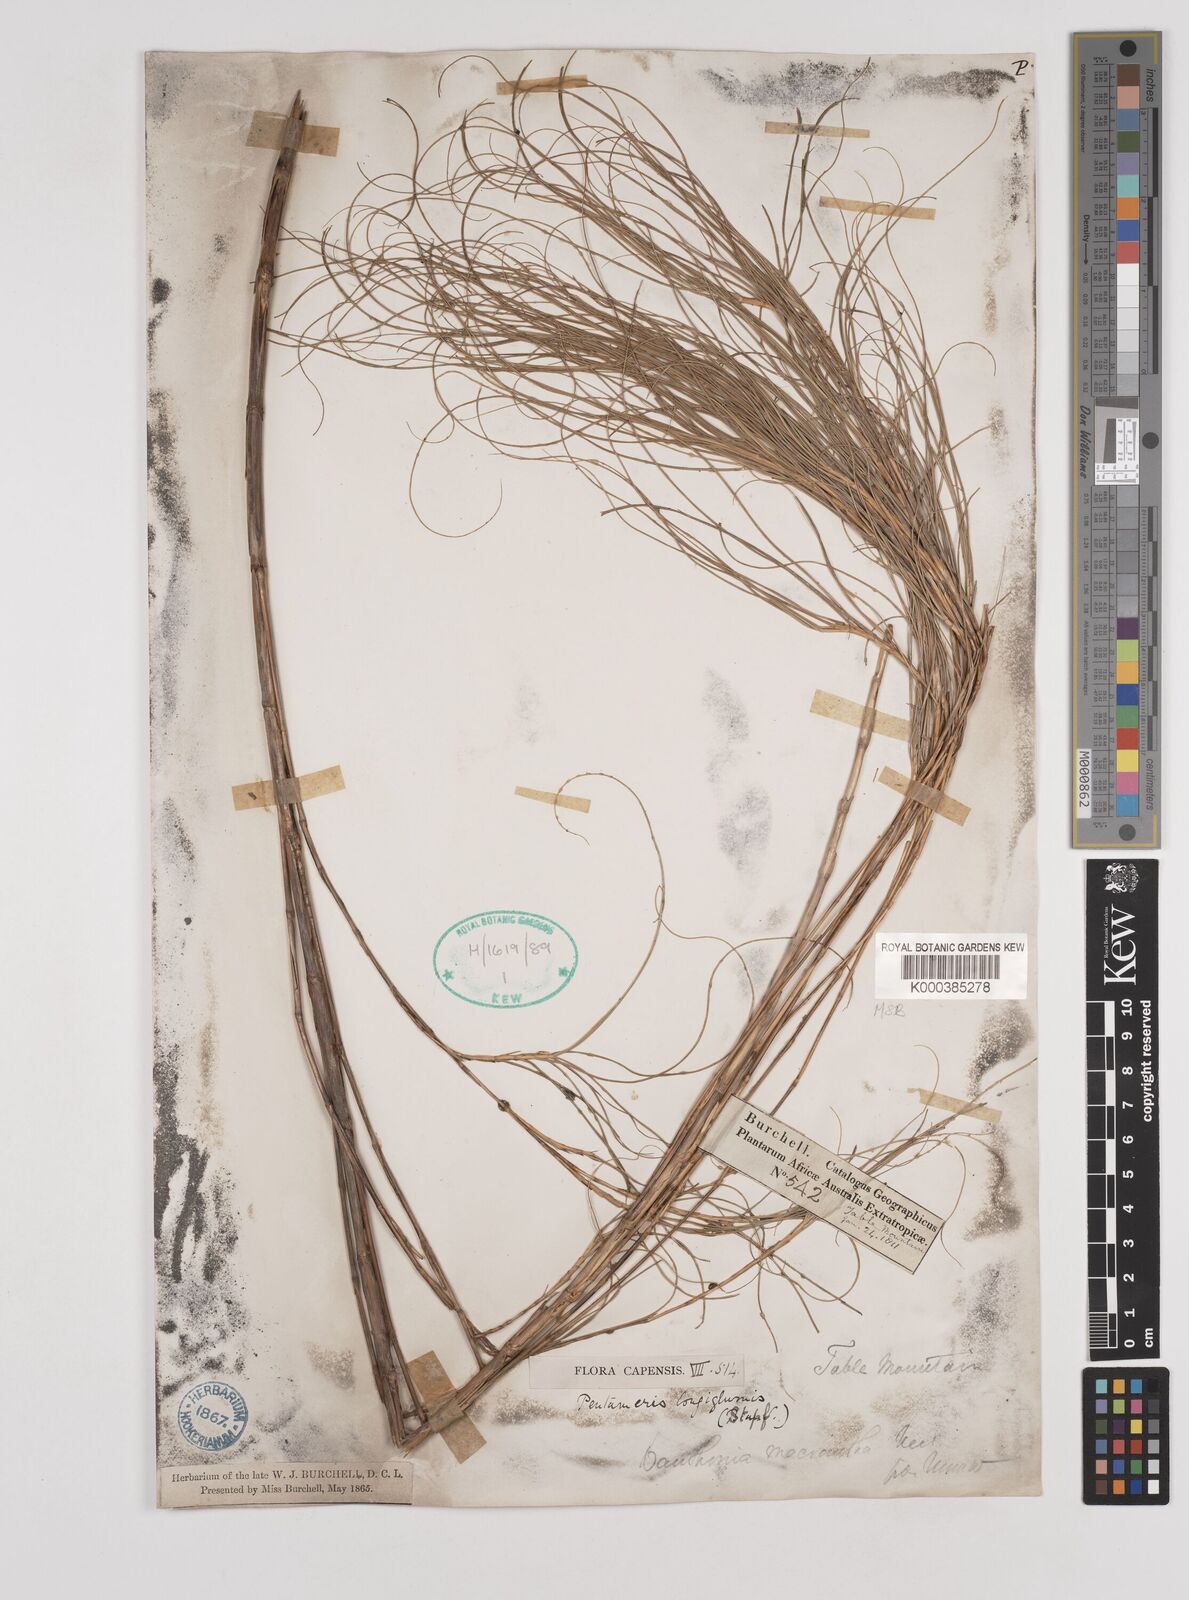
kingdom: Plantae
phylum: Tracheophyta
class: Liliopsida
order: Poales
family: Poaceae
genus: Pentameris
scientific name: Pentameris
